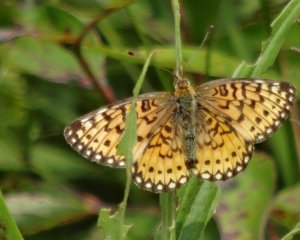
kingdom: Animalia
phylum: Arthropoda
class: Insecta
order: Lepidoptera
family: Nymphalidae
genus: Boloria
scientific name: Boloria selene
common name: Silver-bordered Fritillary
